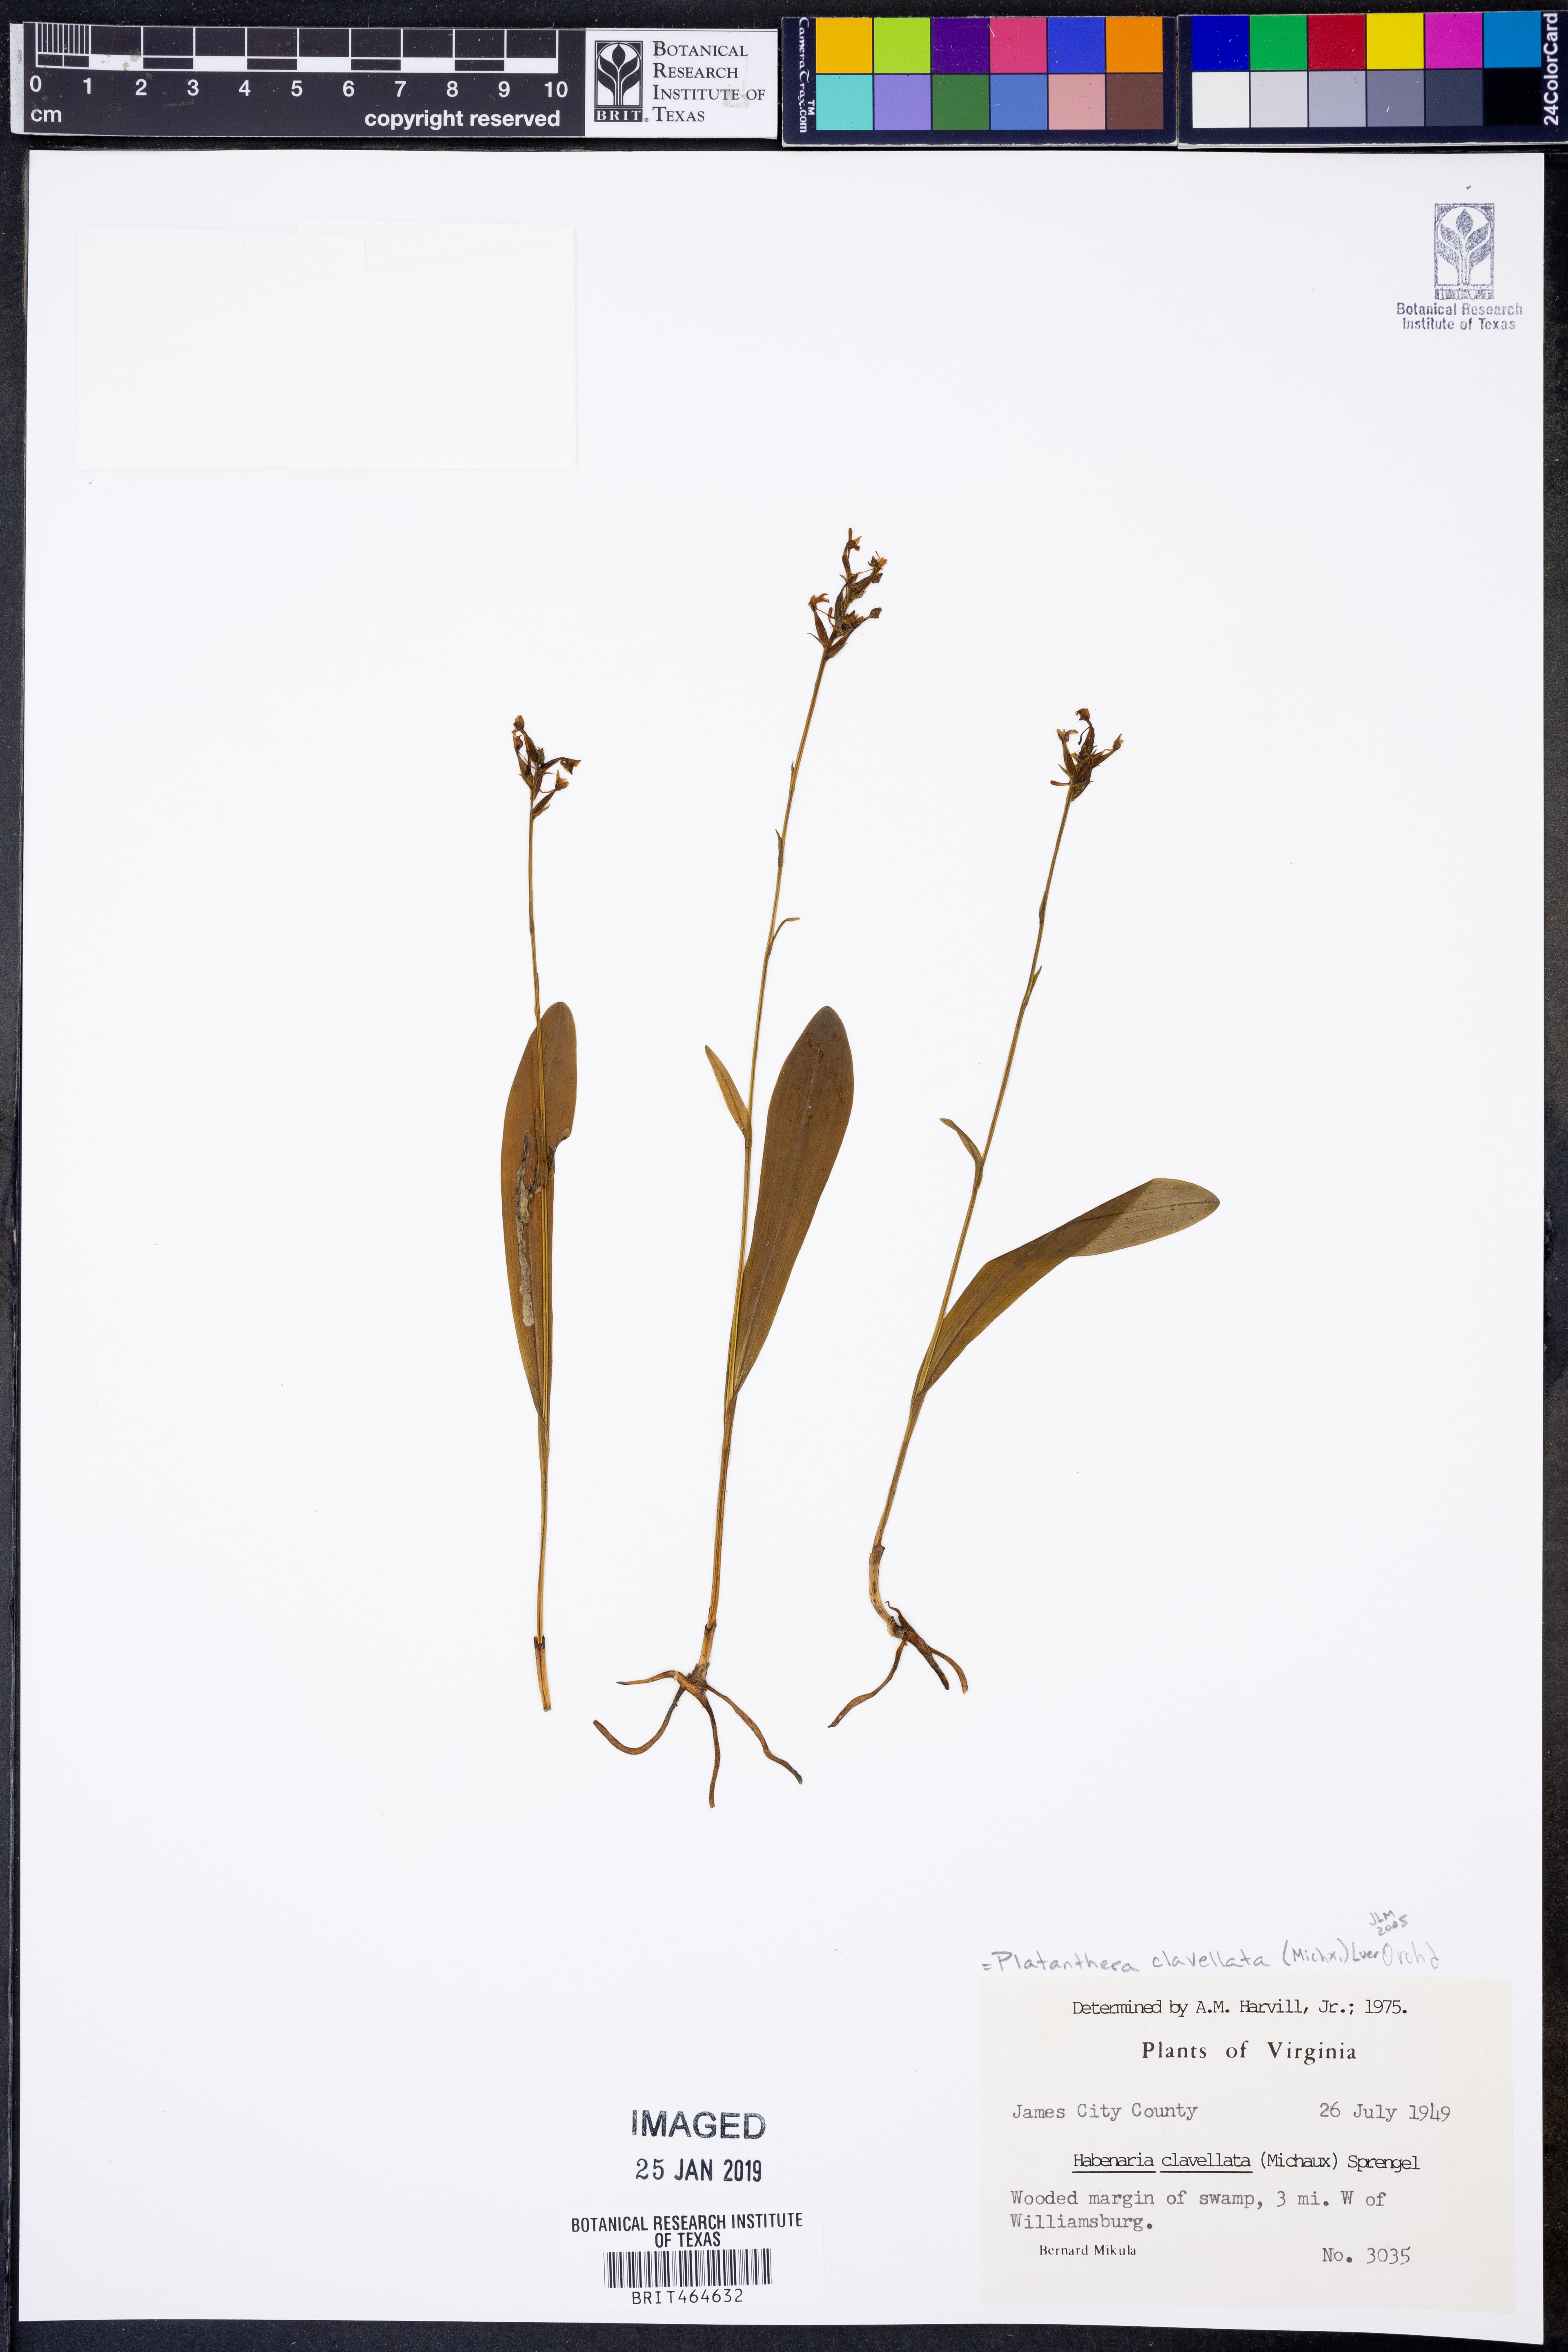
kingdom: Plantae
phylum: Tracheophyta
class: Liliopsida
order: Asparagales
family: Orchidaceae
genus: Platanthera
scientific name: Platanthera clavellata
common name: Club-spur orchid
